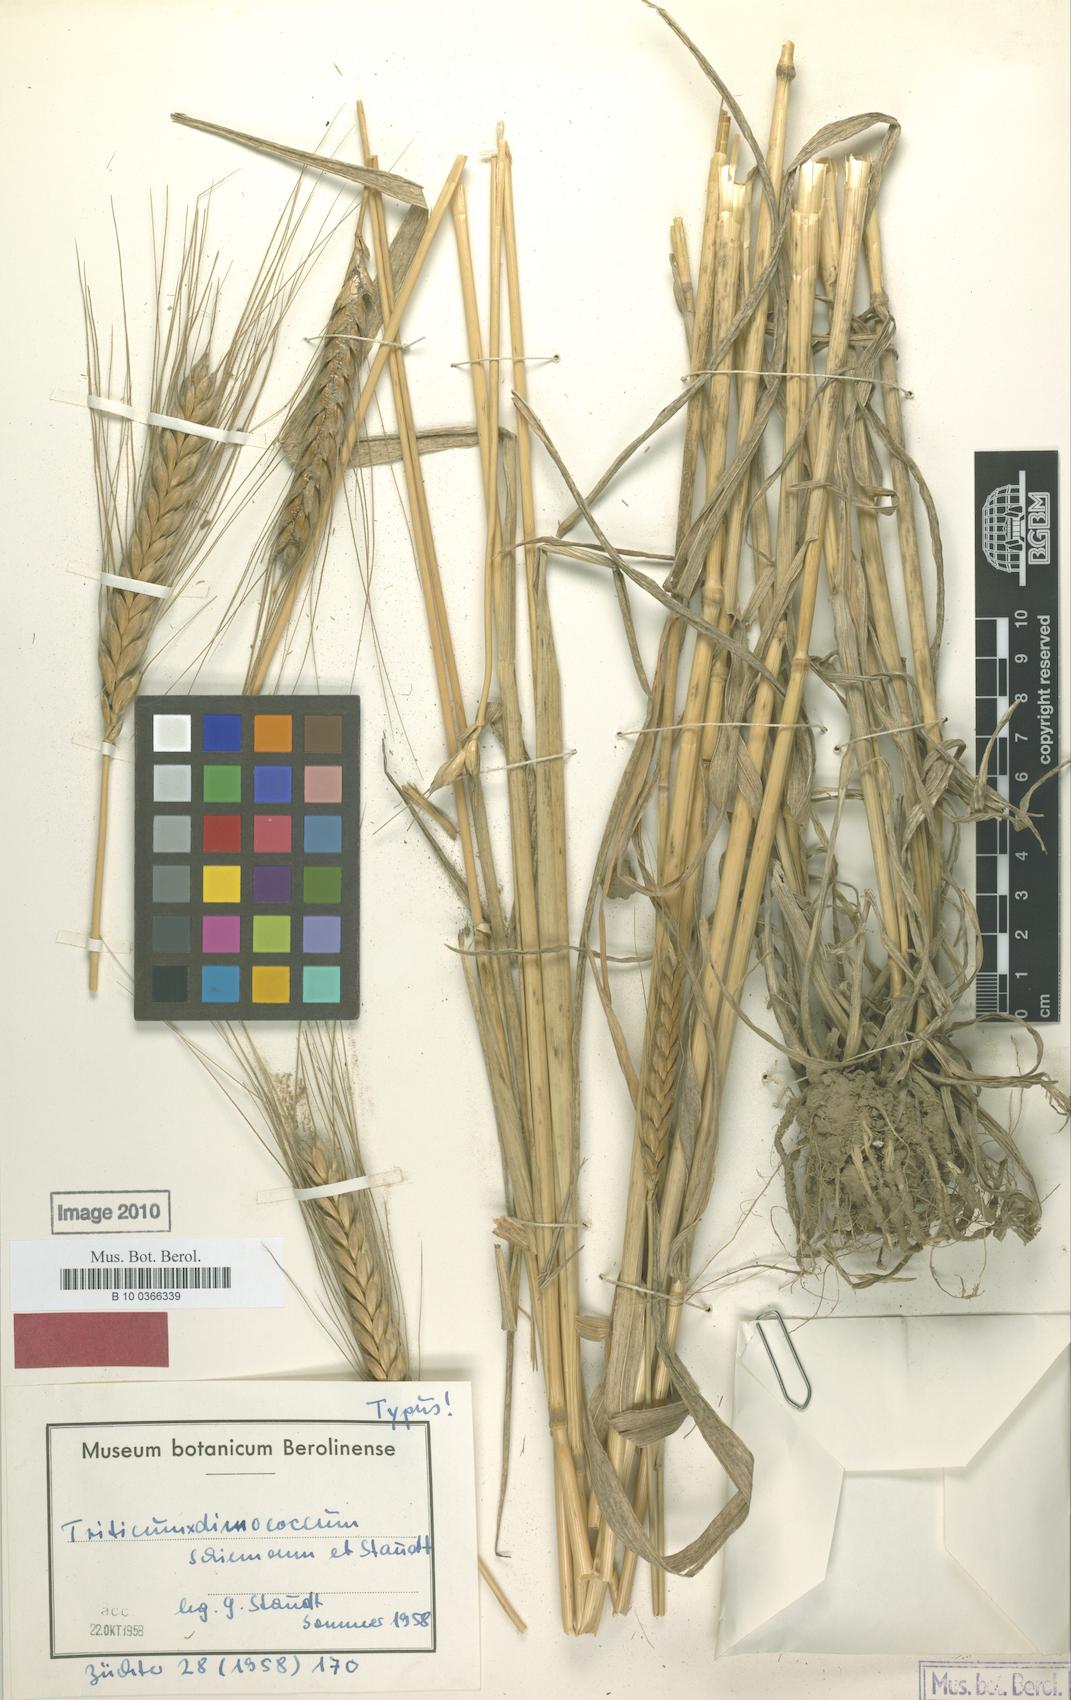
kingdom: Plantae
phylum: Tracheophyta
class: Liliopsida
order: Poales
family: Poaceae
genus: Triticum
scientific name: Triticum dimococcum
